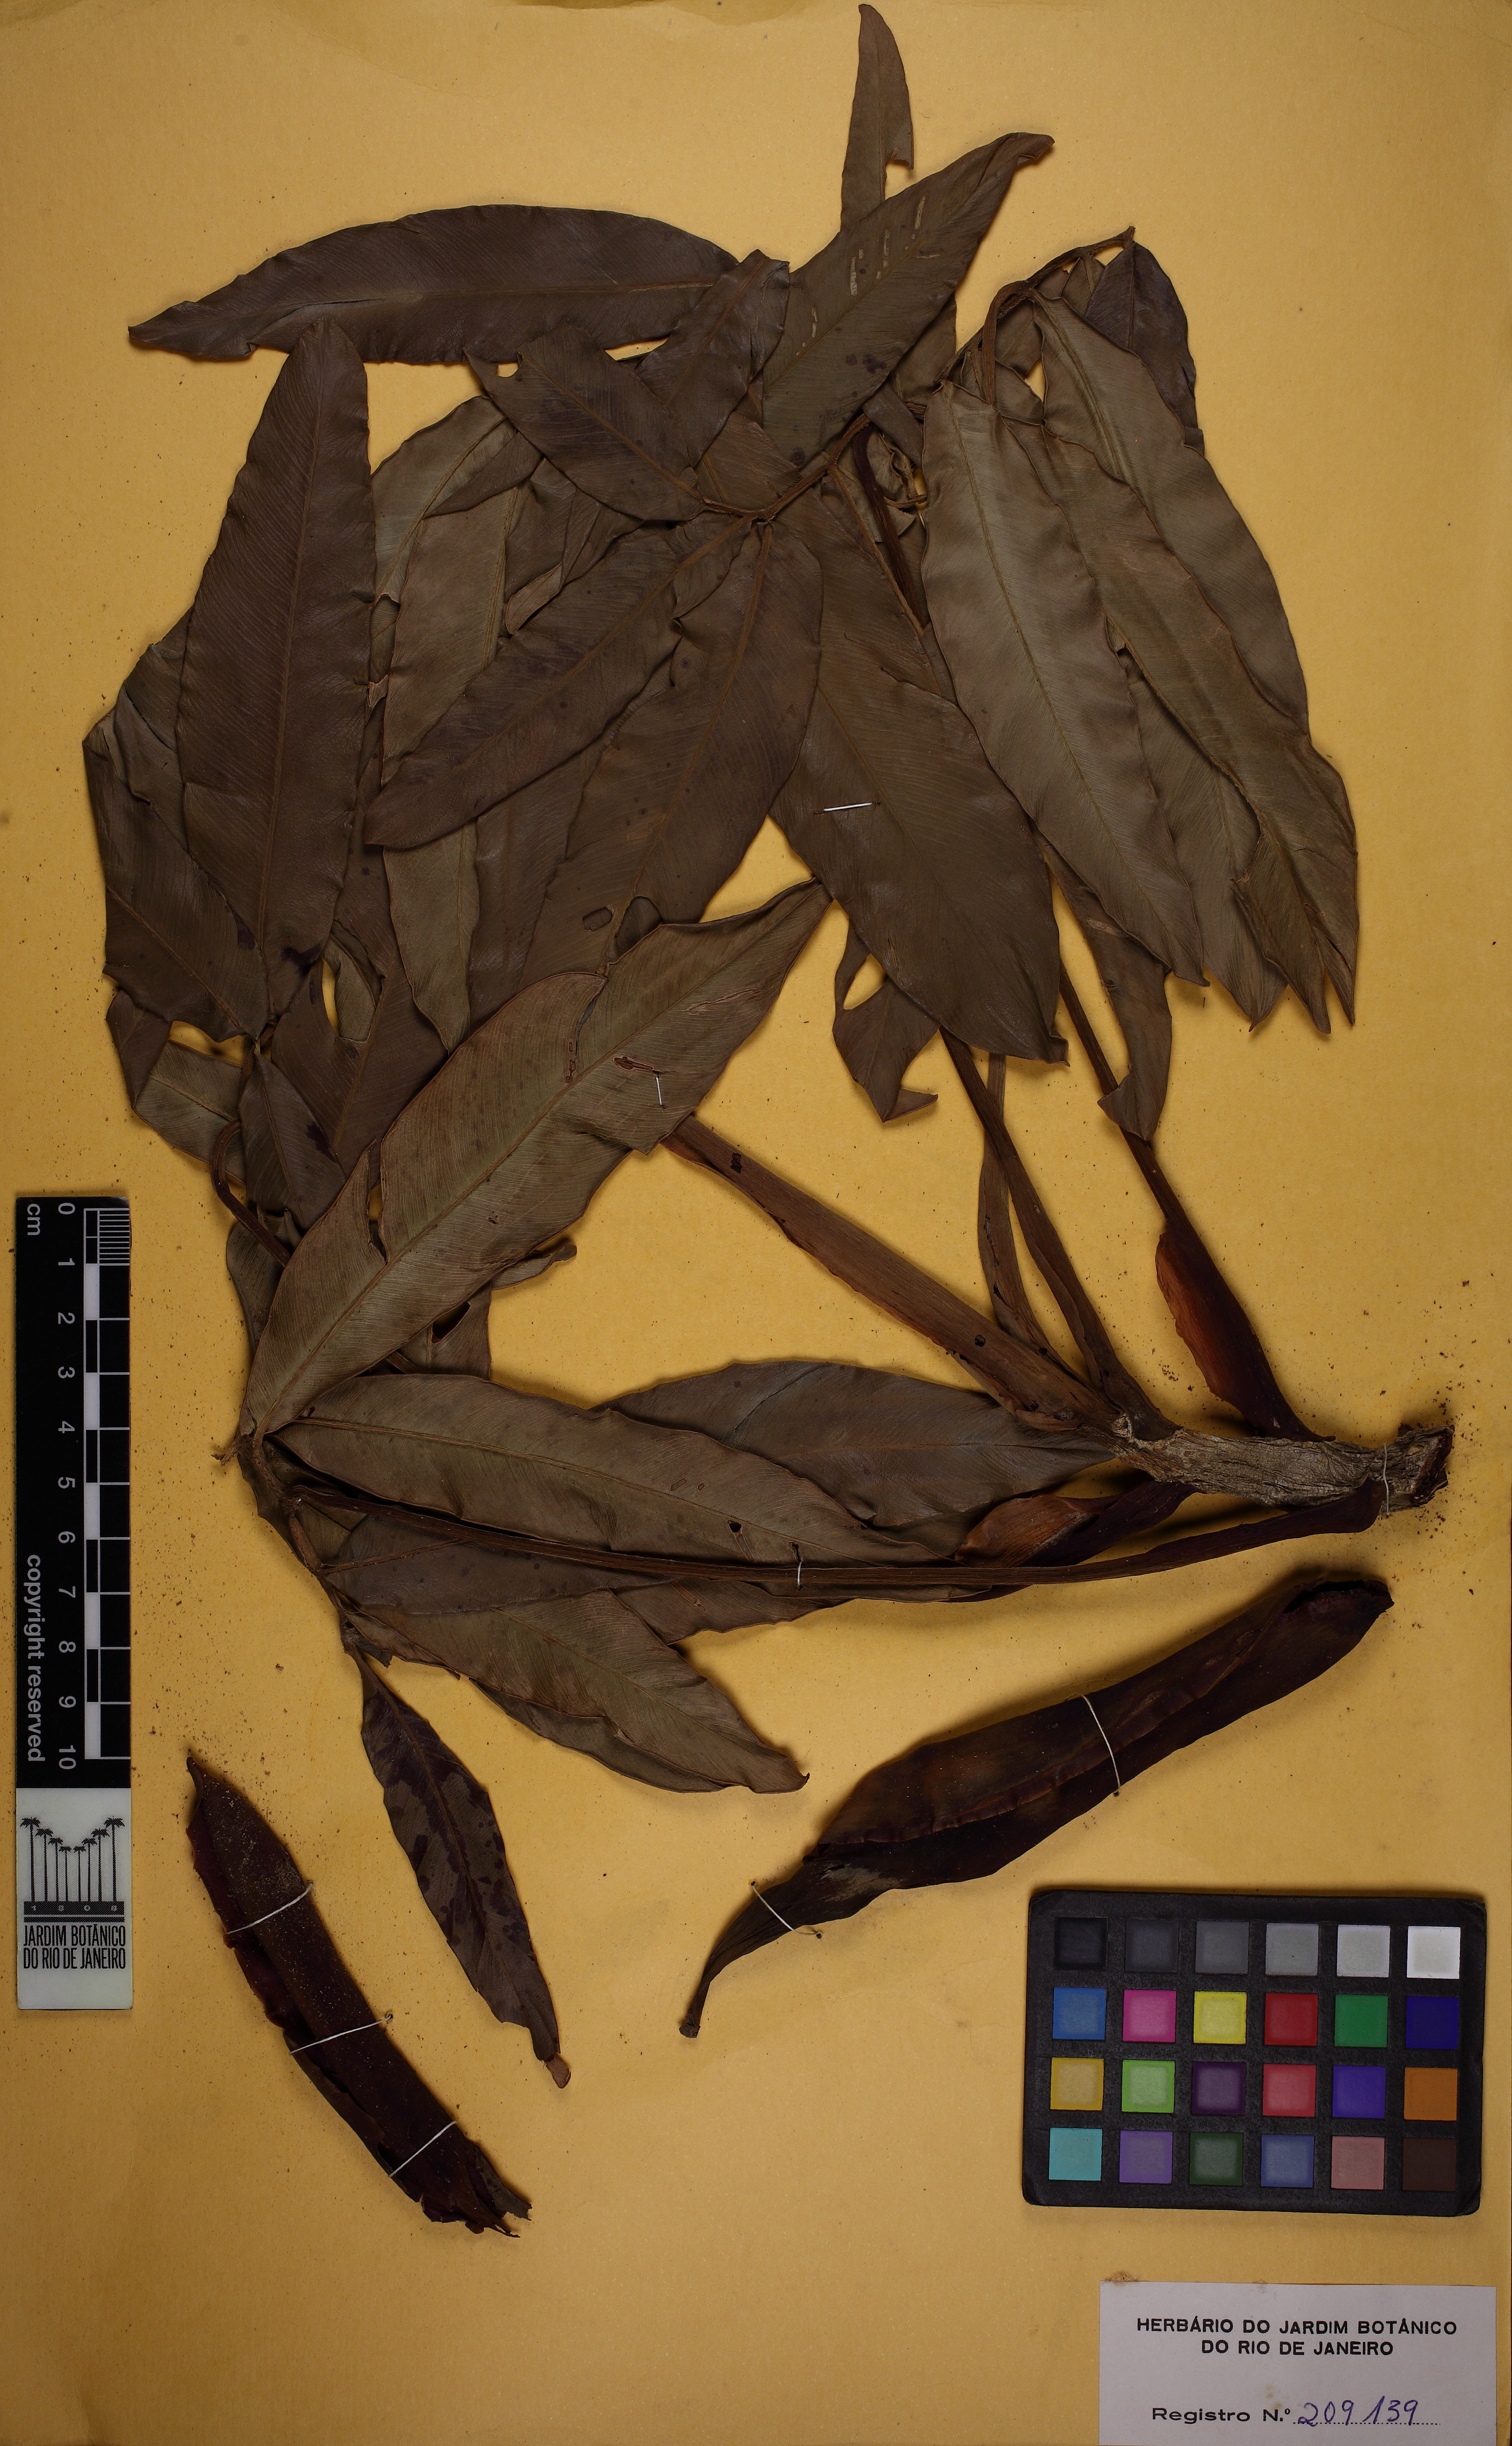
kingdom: Plantae
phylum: Tracheophyta
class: Liliopsida
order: Alismatales
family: Araceae
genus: Thaumatophyllum
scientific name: Thaumatophyllum leal-costae
